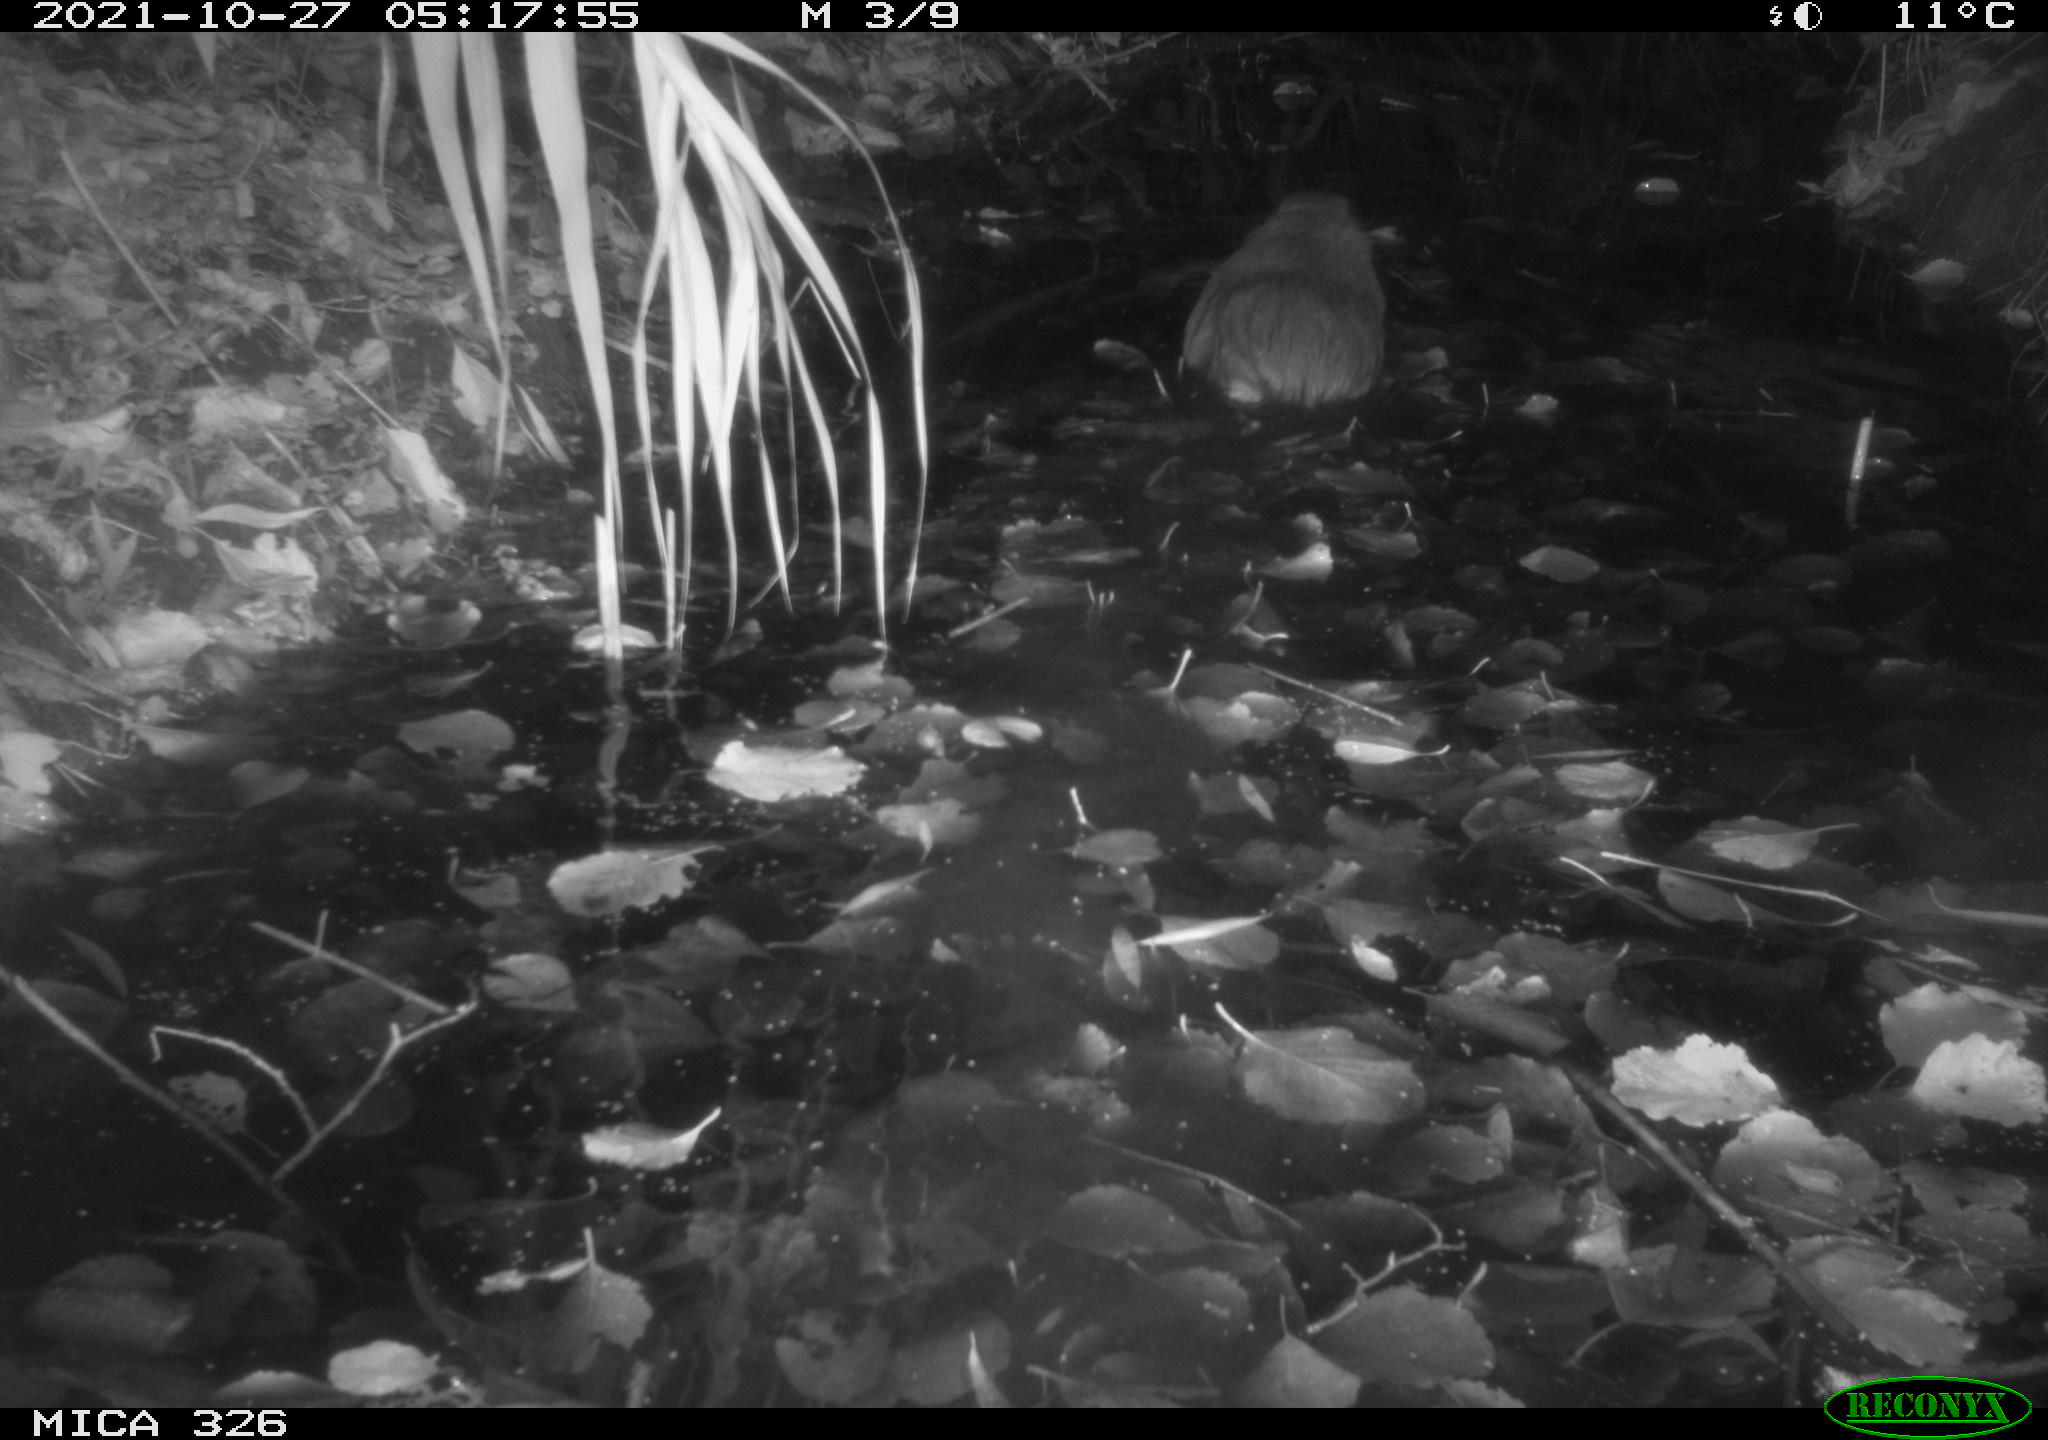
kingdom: Animalia
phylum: Chordata
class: Mammalia
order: Rodentia
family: Myocastoridae
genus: Myocastor
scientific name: Myocastor coypus
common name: Coypu
